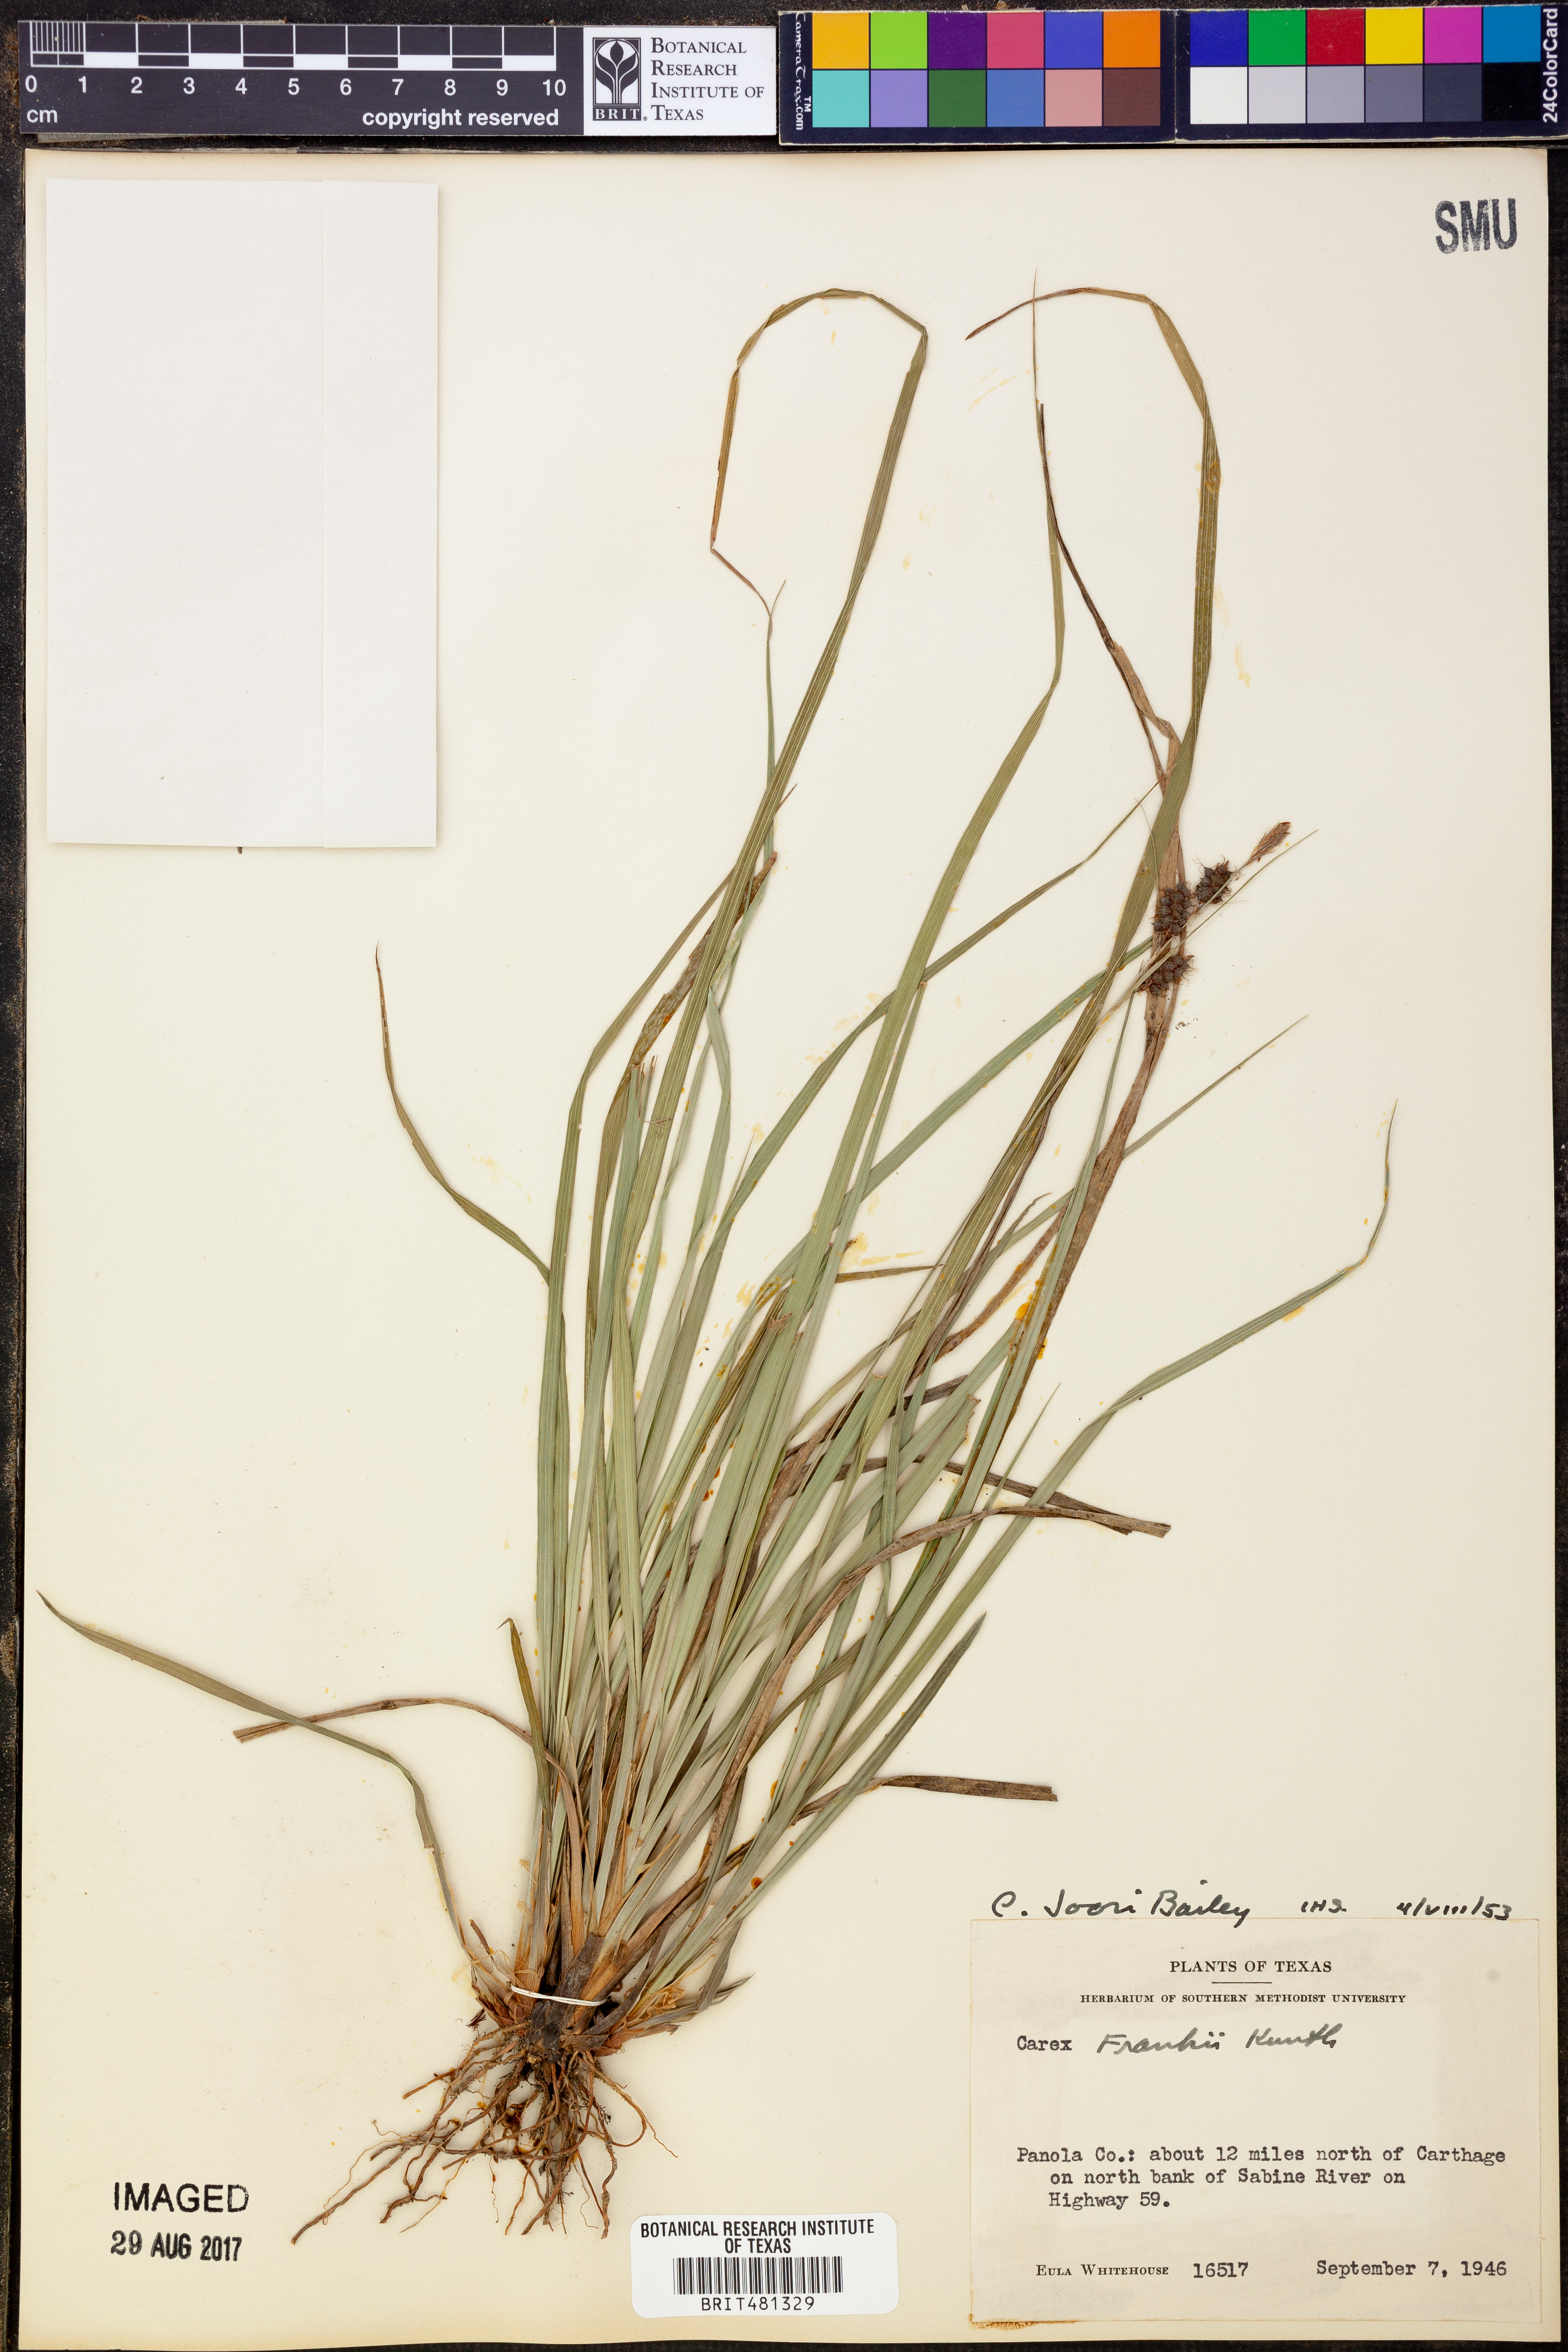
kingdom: Plantae
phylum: Tracheophyta
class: Liliopsida
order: Poales
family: Cyperaceae
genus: Carex
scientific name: Carex joorii
